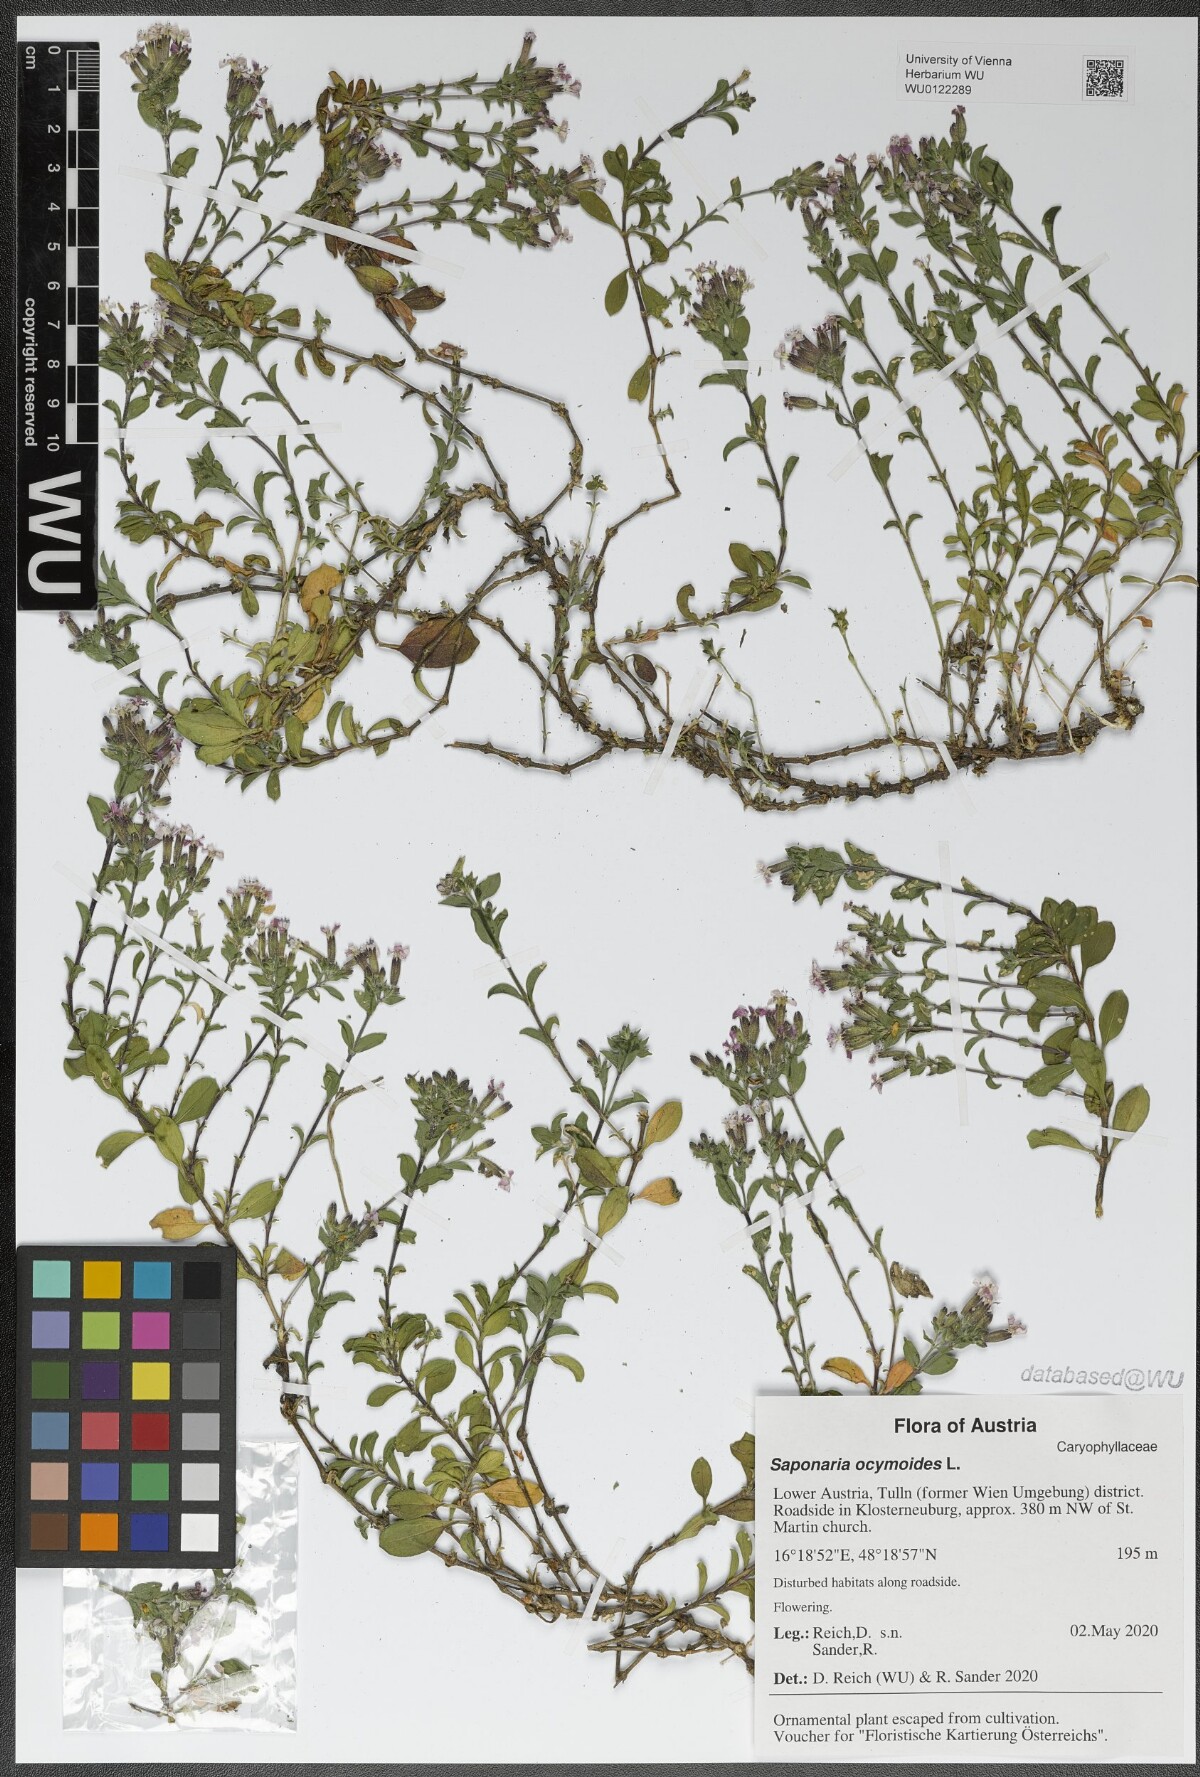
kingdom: Plantae
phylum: Tracheophyta
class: Magnoliopsida
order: Caryophyllales
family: Caryophyllaceae
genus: Saponaria
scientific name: Saponaria ocymoides
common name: Rock soapwort
